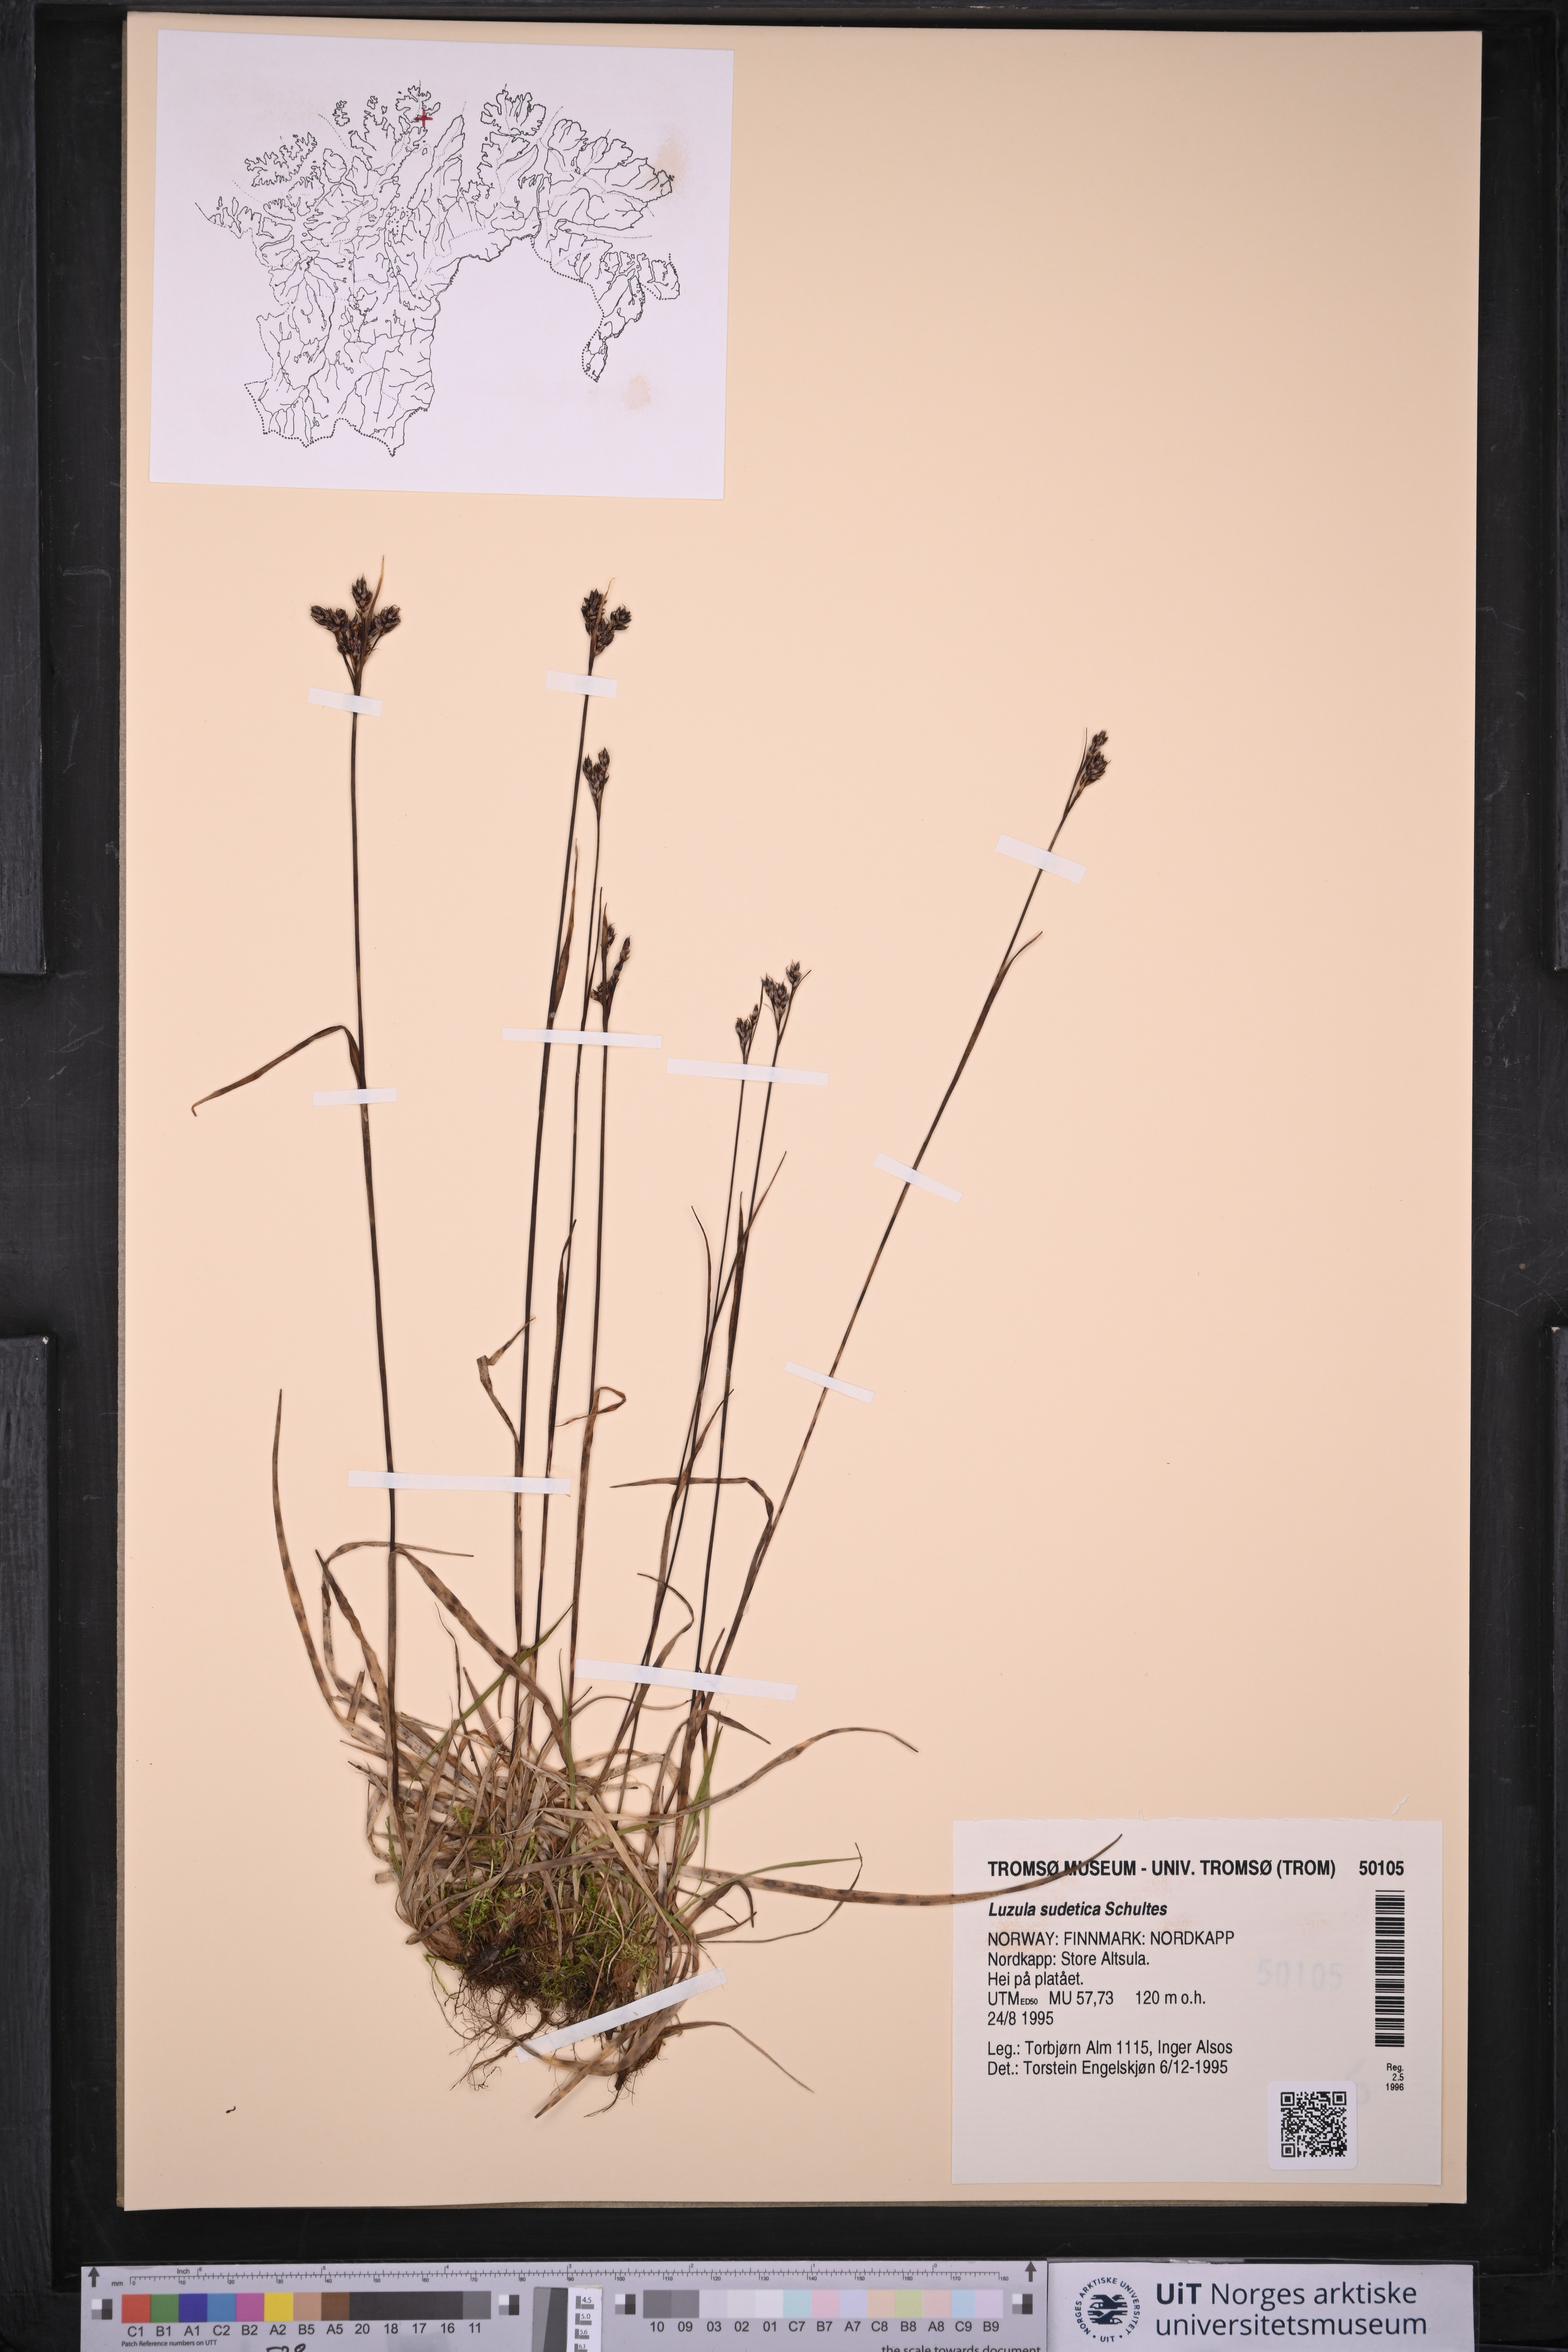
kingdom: Plantae
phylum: Tracheophyta
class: Liliopsida
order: Poales
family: Juncaceae
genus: Luzula
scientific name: Luzula sudetica
